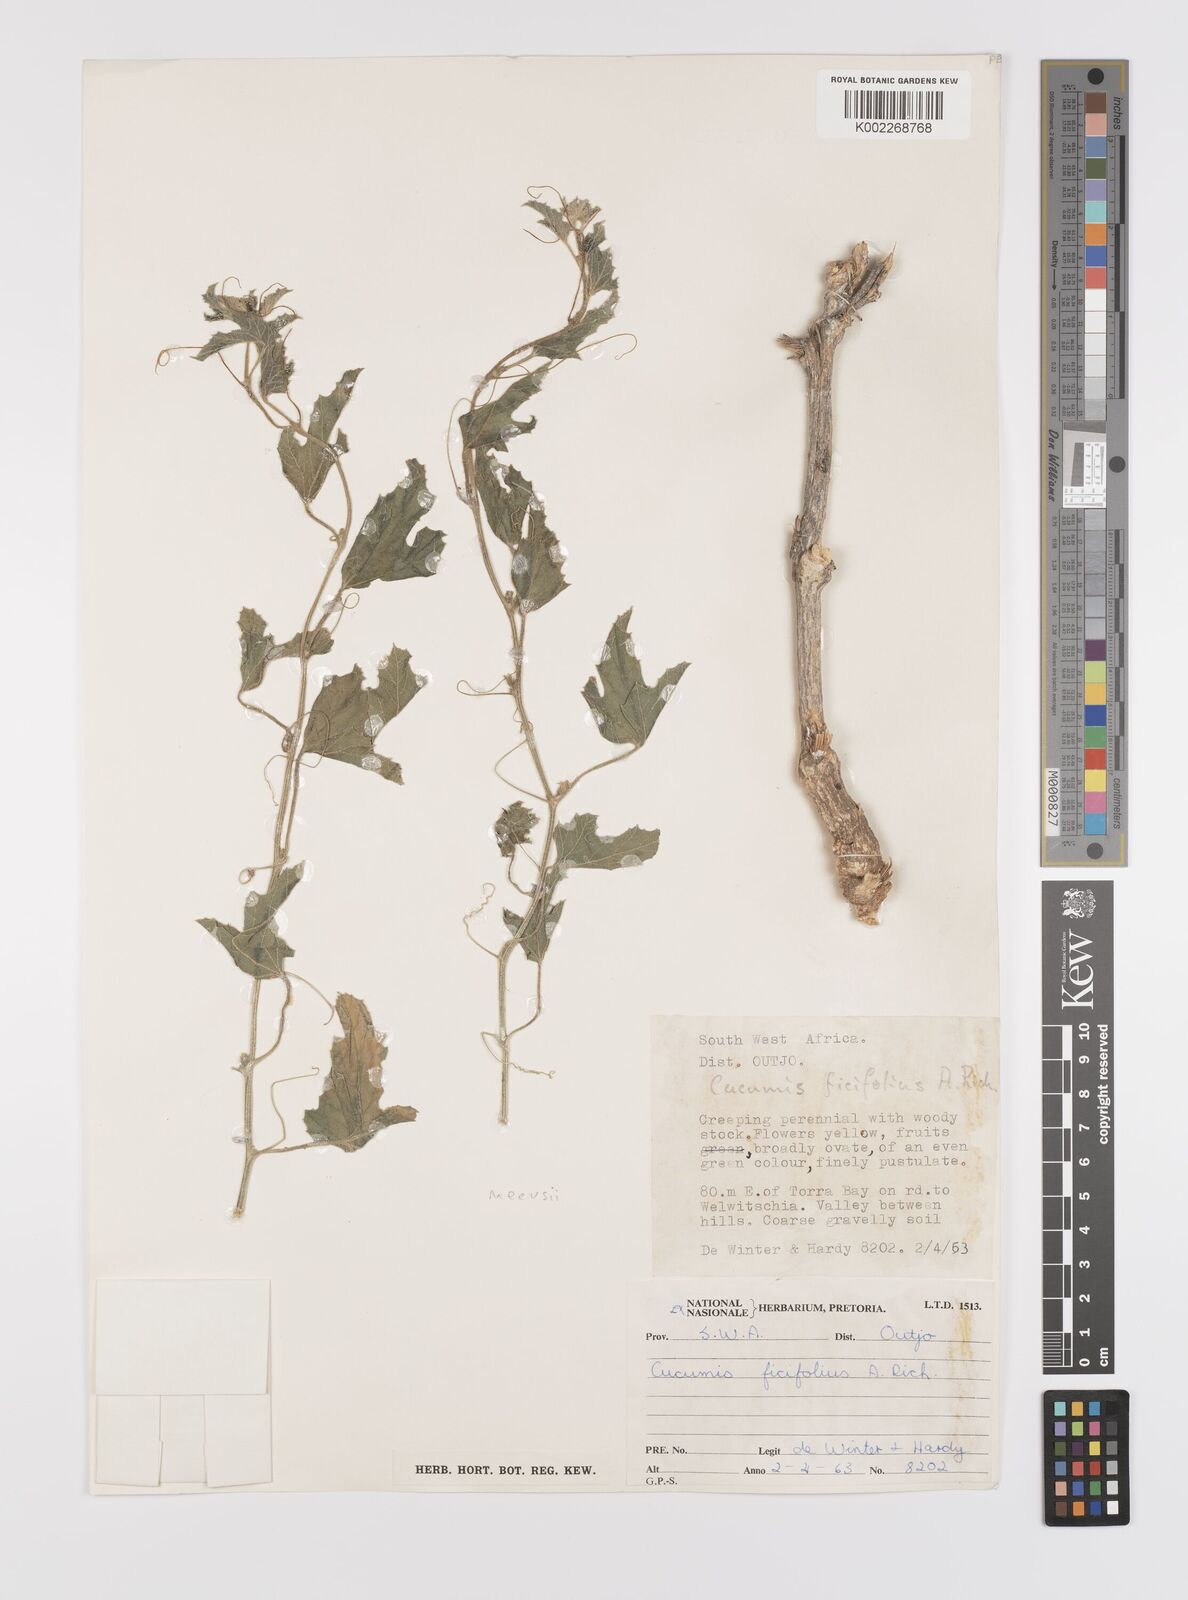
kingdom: Plantae
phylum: Tracheophyta
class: Magnoliopsida
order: Cucurbitales
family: Cucurbitaceae
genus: Cucumis
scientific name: Cucumis meeusei
